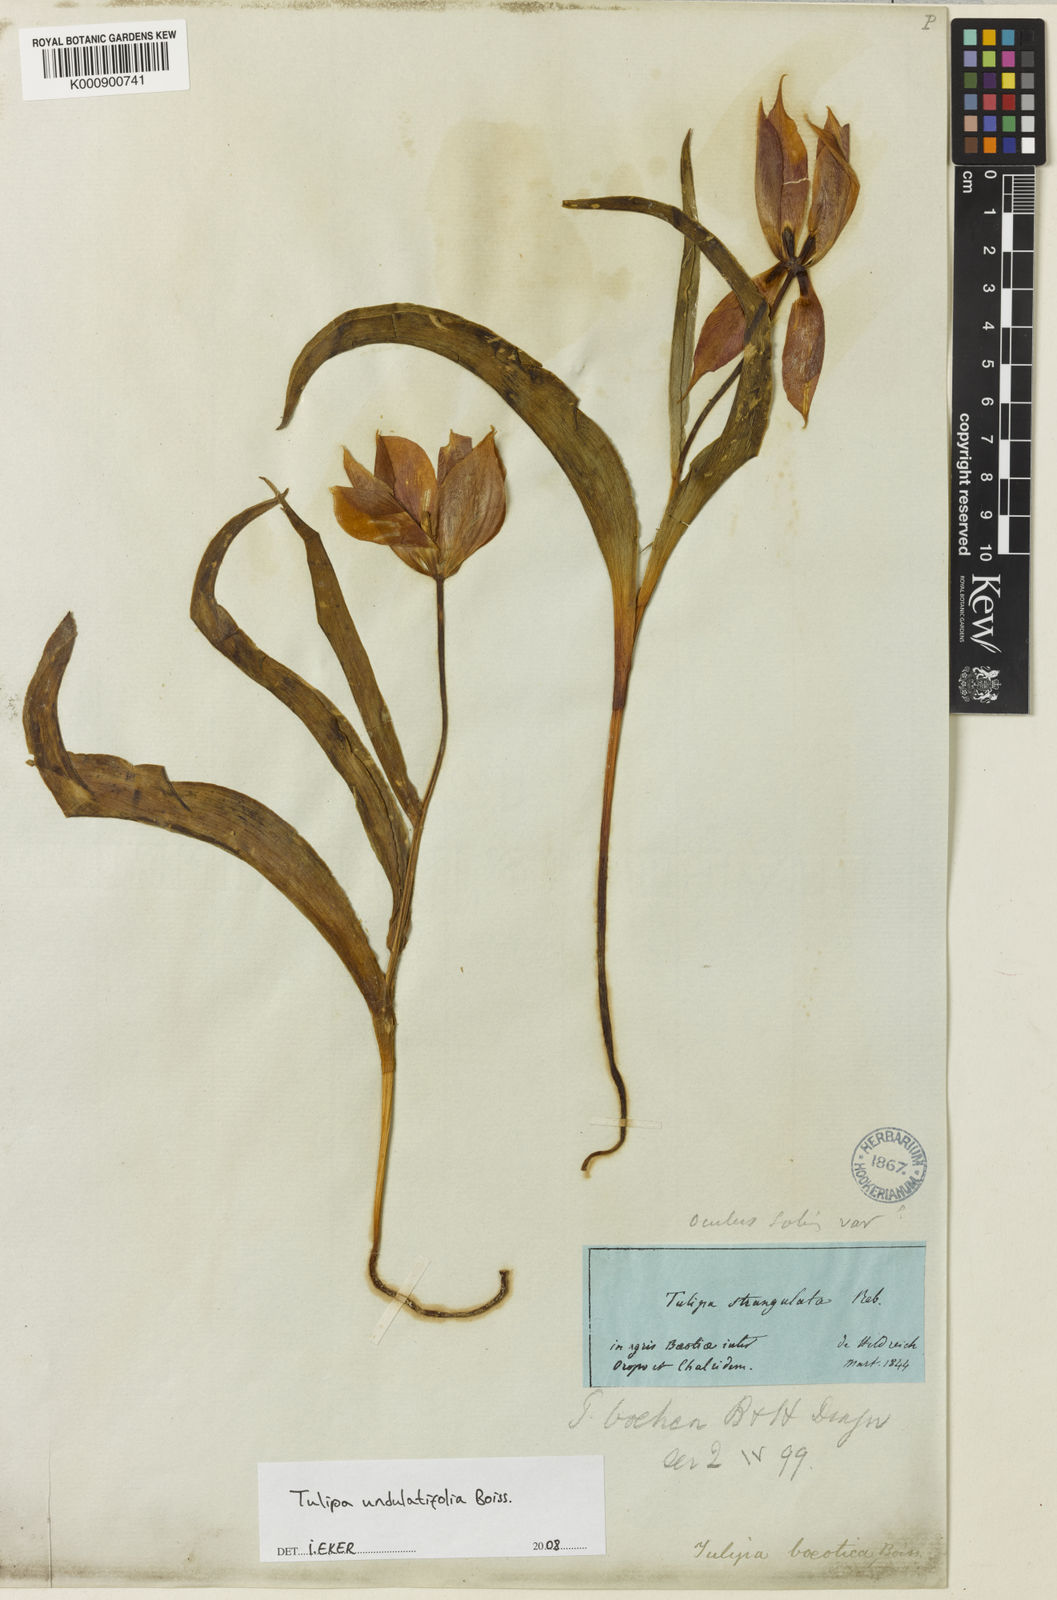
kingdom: Plantae
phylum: Tracheophyta
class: Liliopsida
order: Liliales
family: Liliaceae
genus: Tulipa
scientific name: Tulipa undulatifolia
